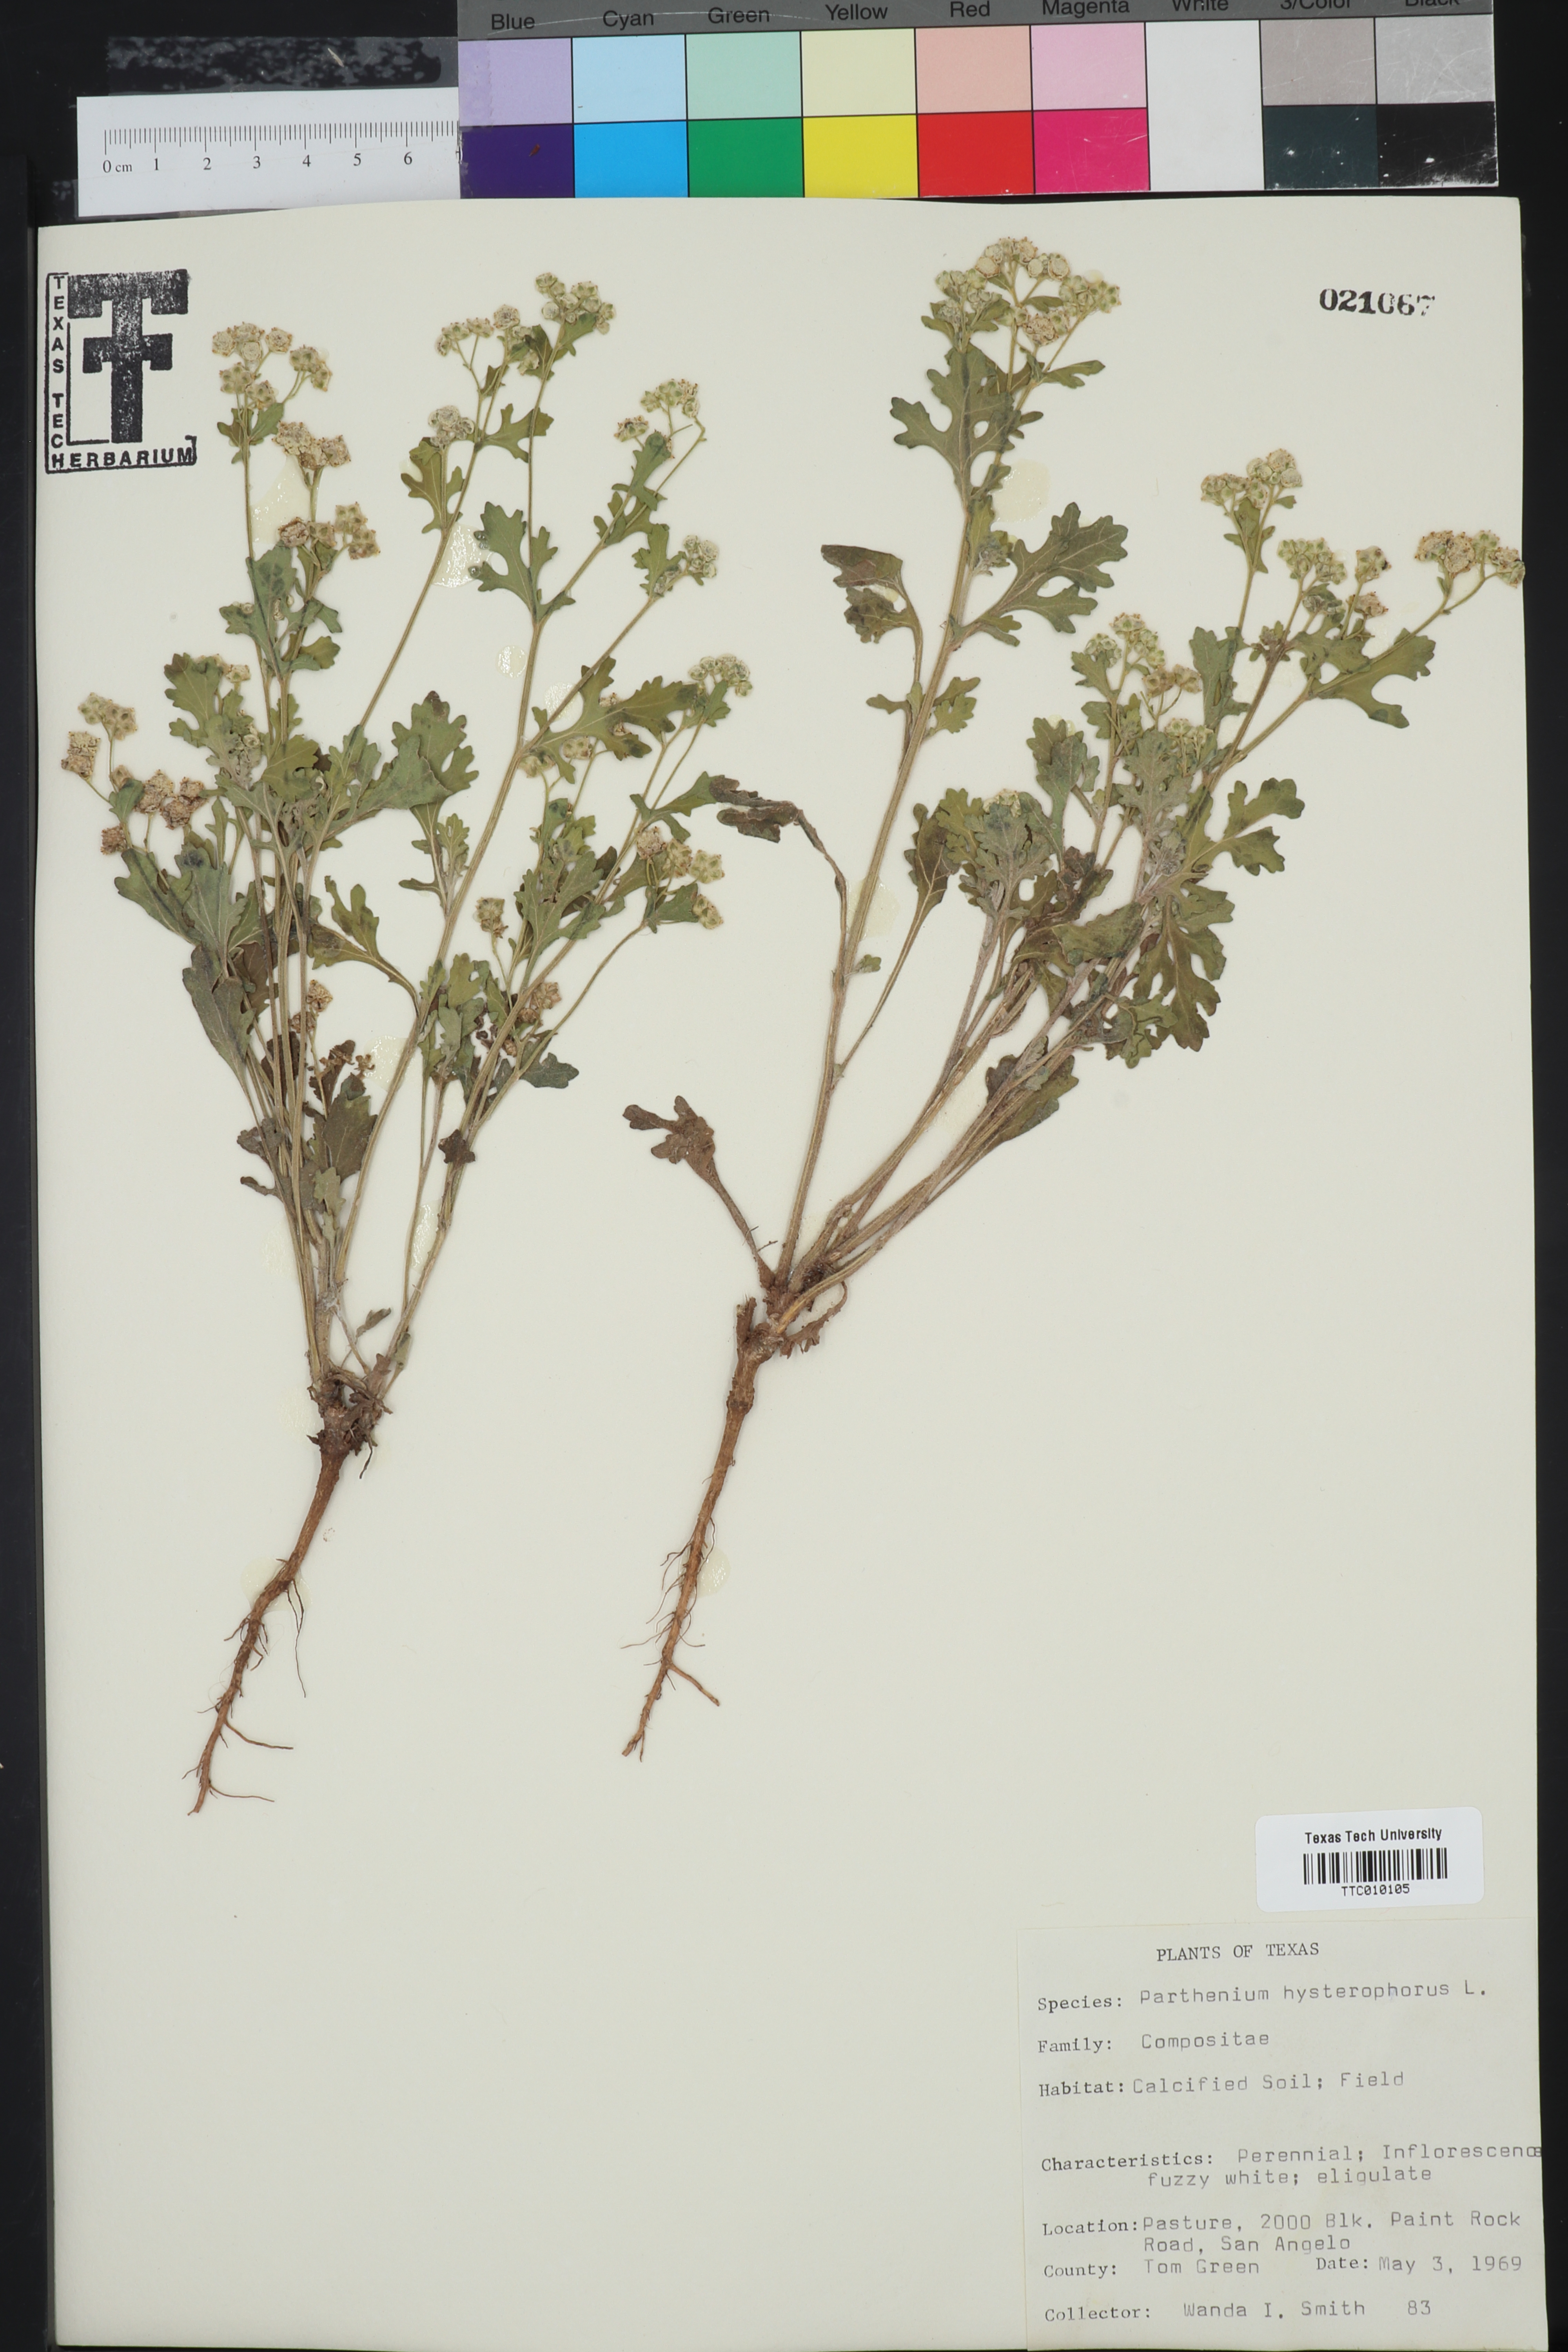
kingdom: Plantae
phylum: Tracheophyta
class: Magnoliopsida
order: Asterales
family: Asteraceae
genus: Parthenium
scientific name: Parthenium hysterophorus
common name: Santa maria feverfew
